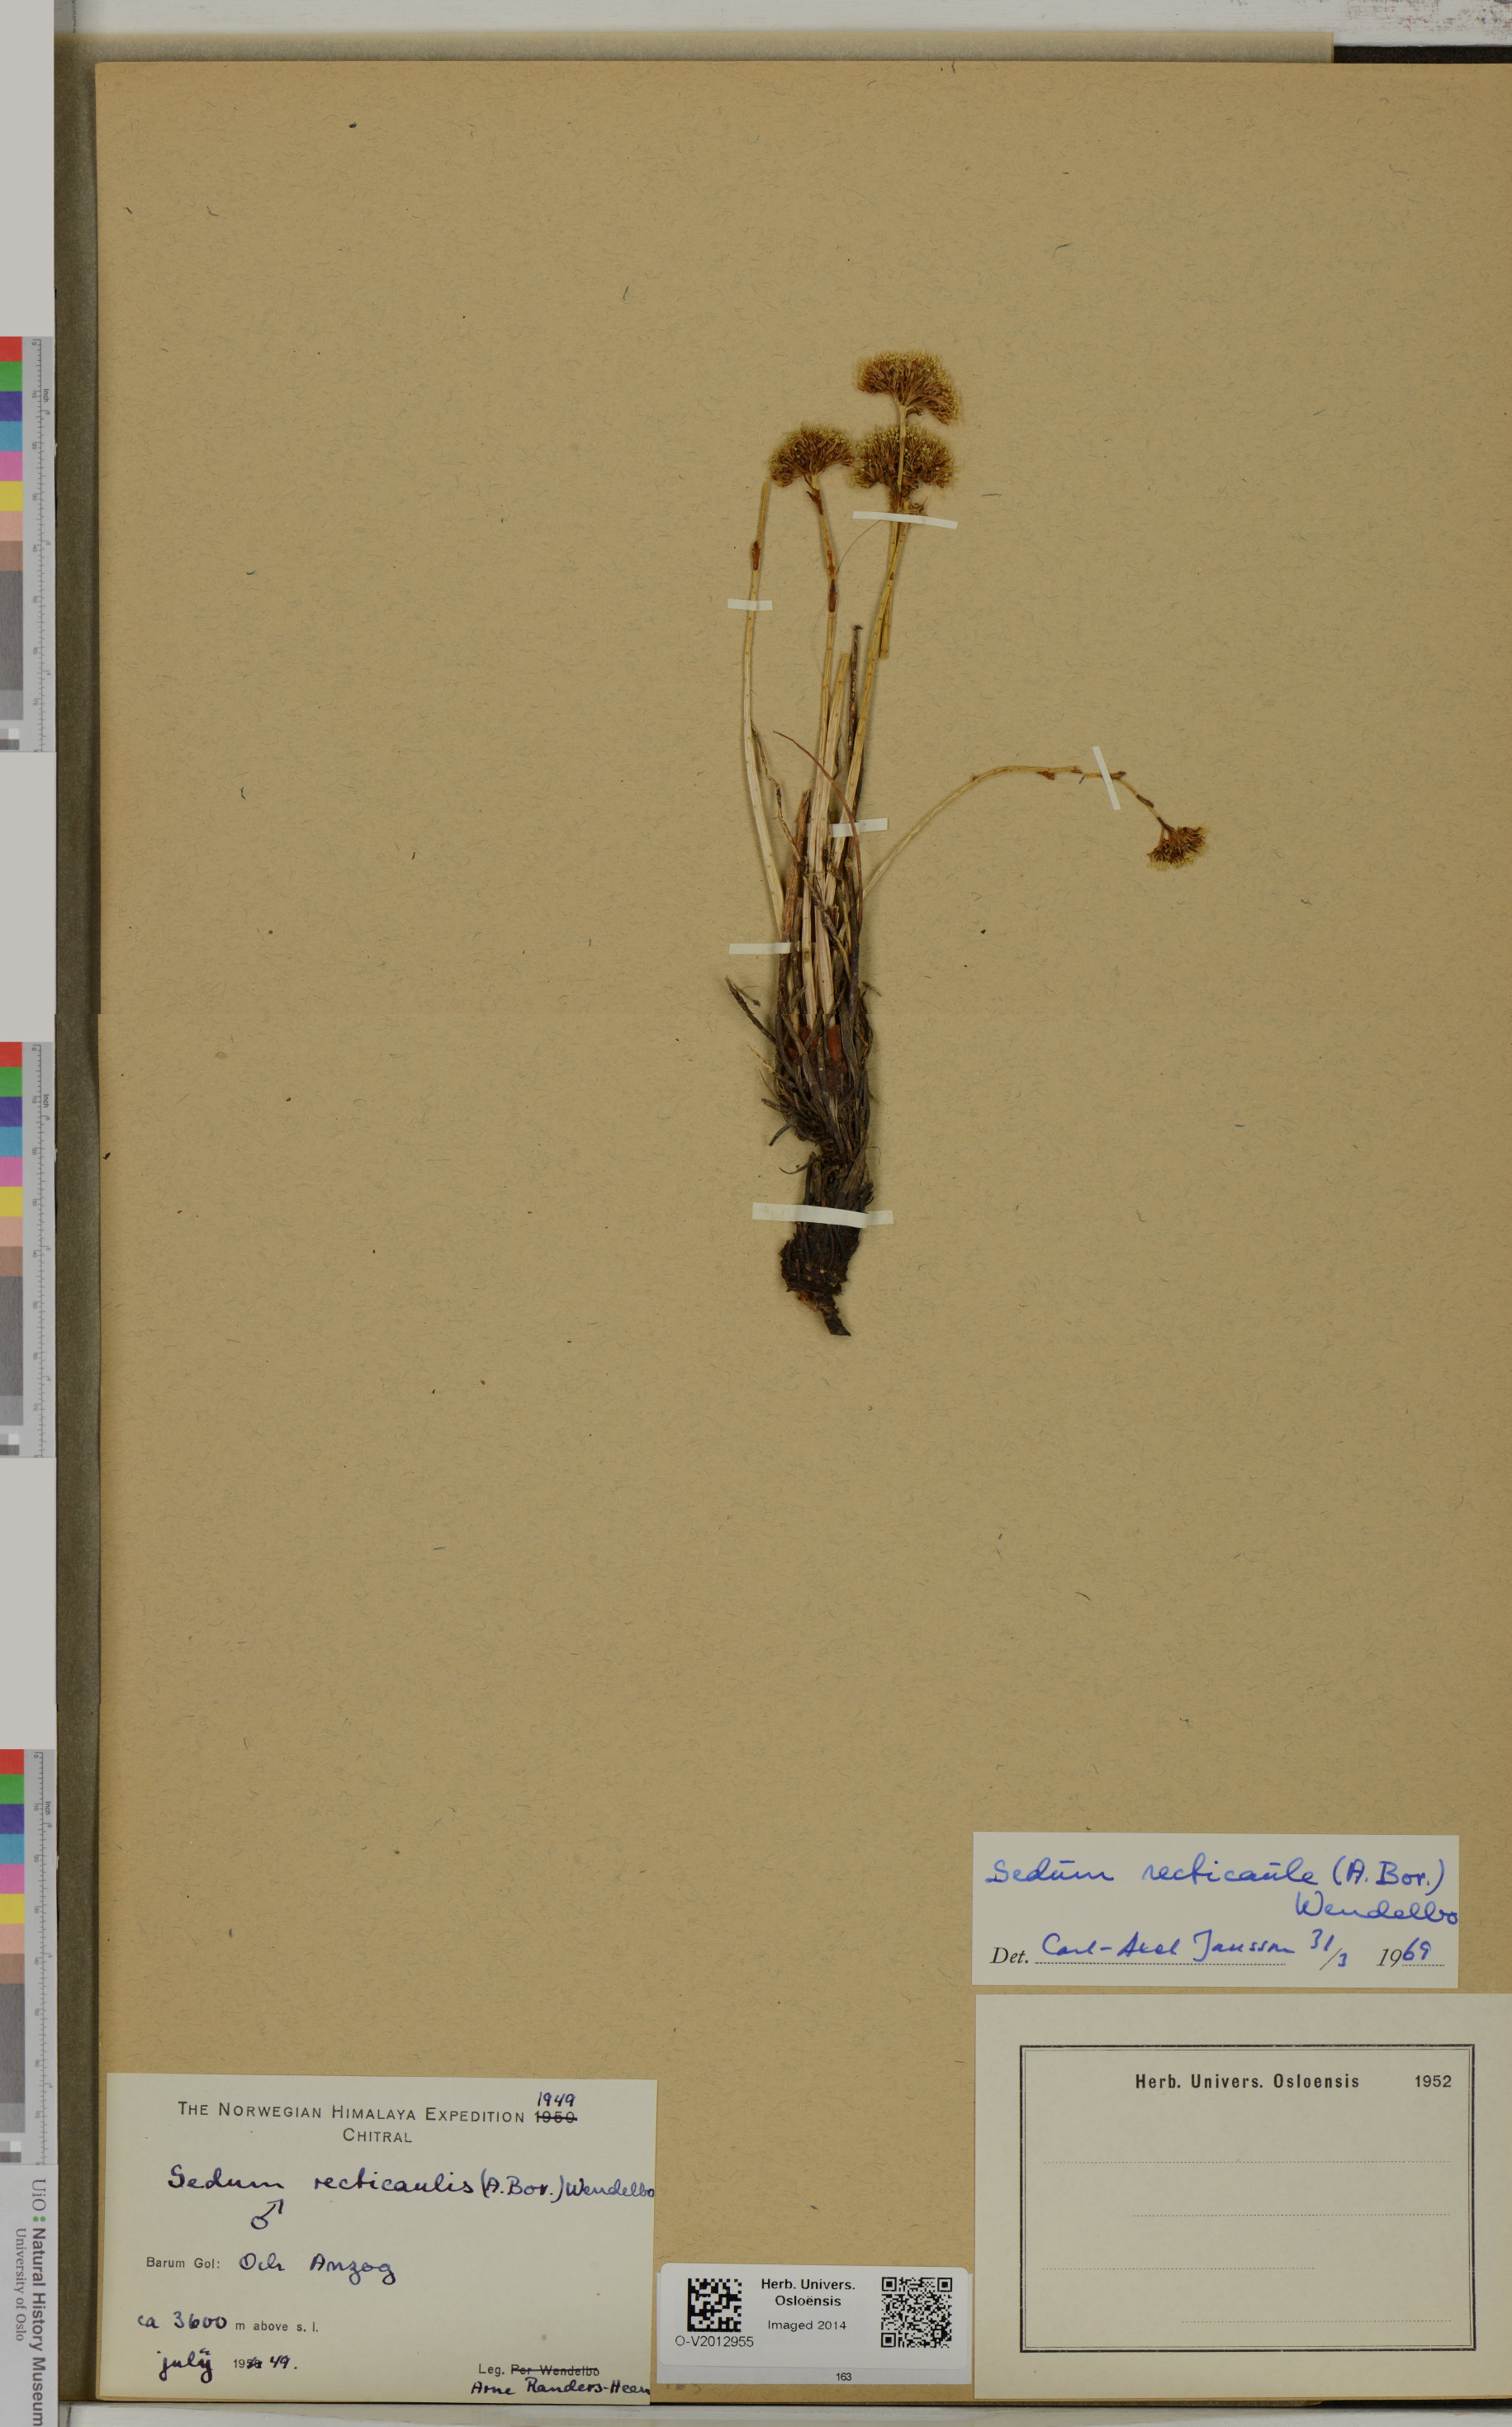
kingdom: Plantae
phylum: Tracheophyta
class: Magnoliopsida
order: Saxifragales
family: Crassulaceae
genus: Rhodiola
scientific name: Rhodiola imbricata
